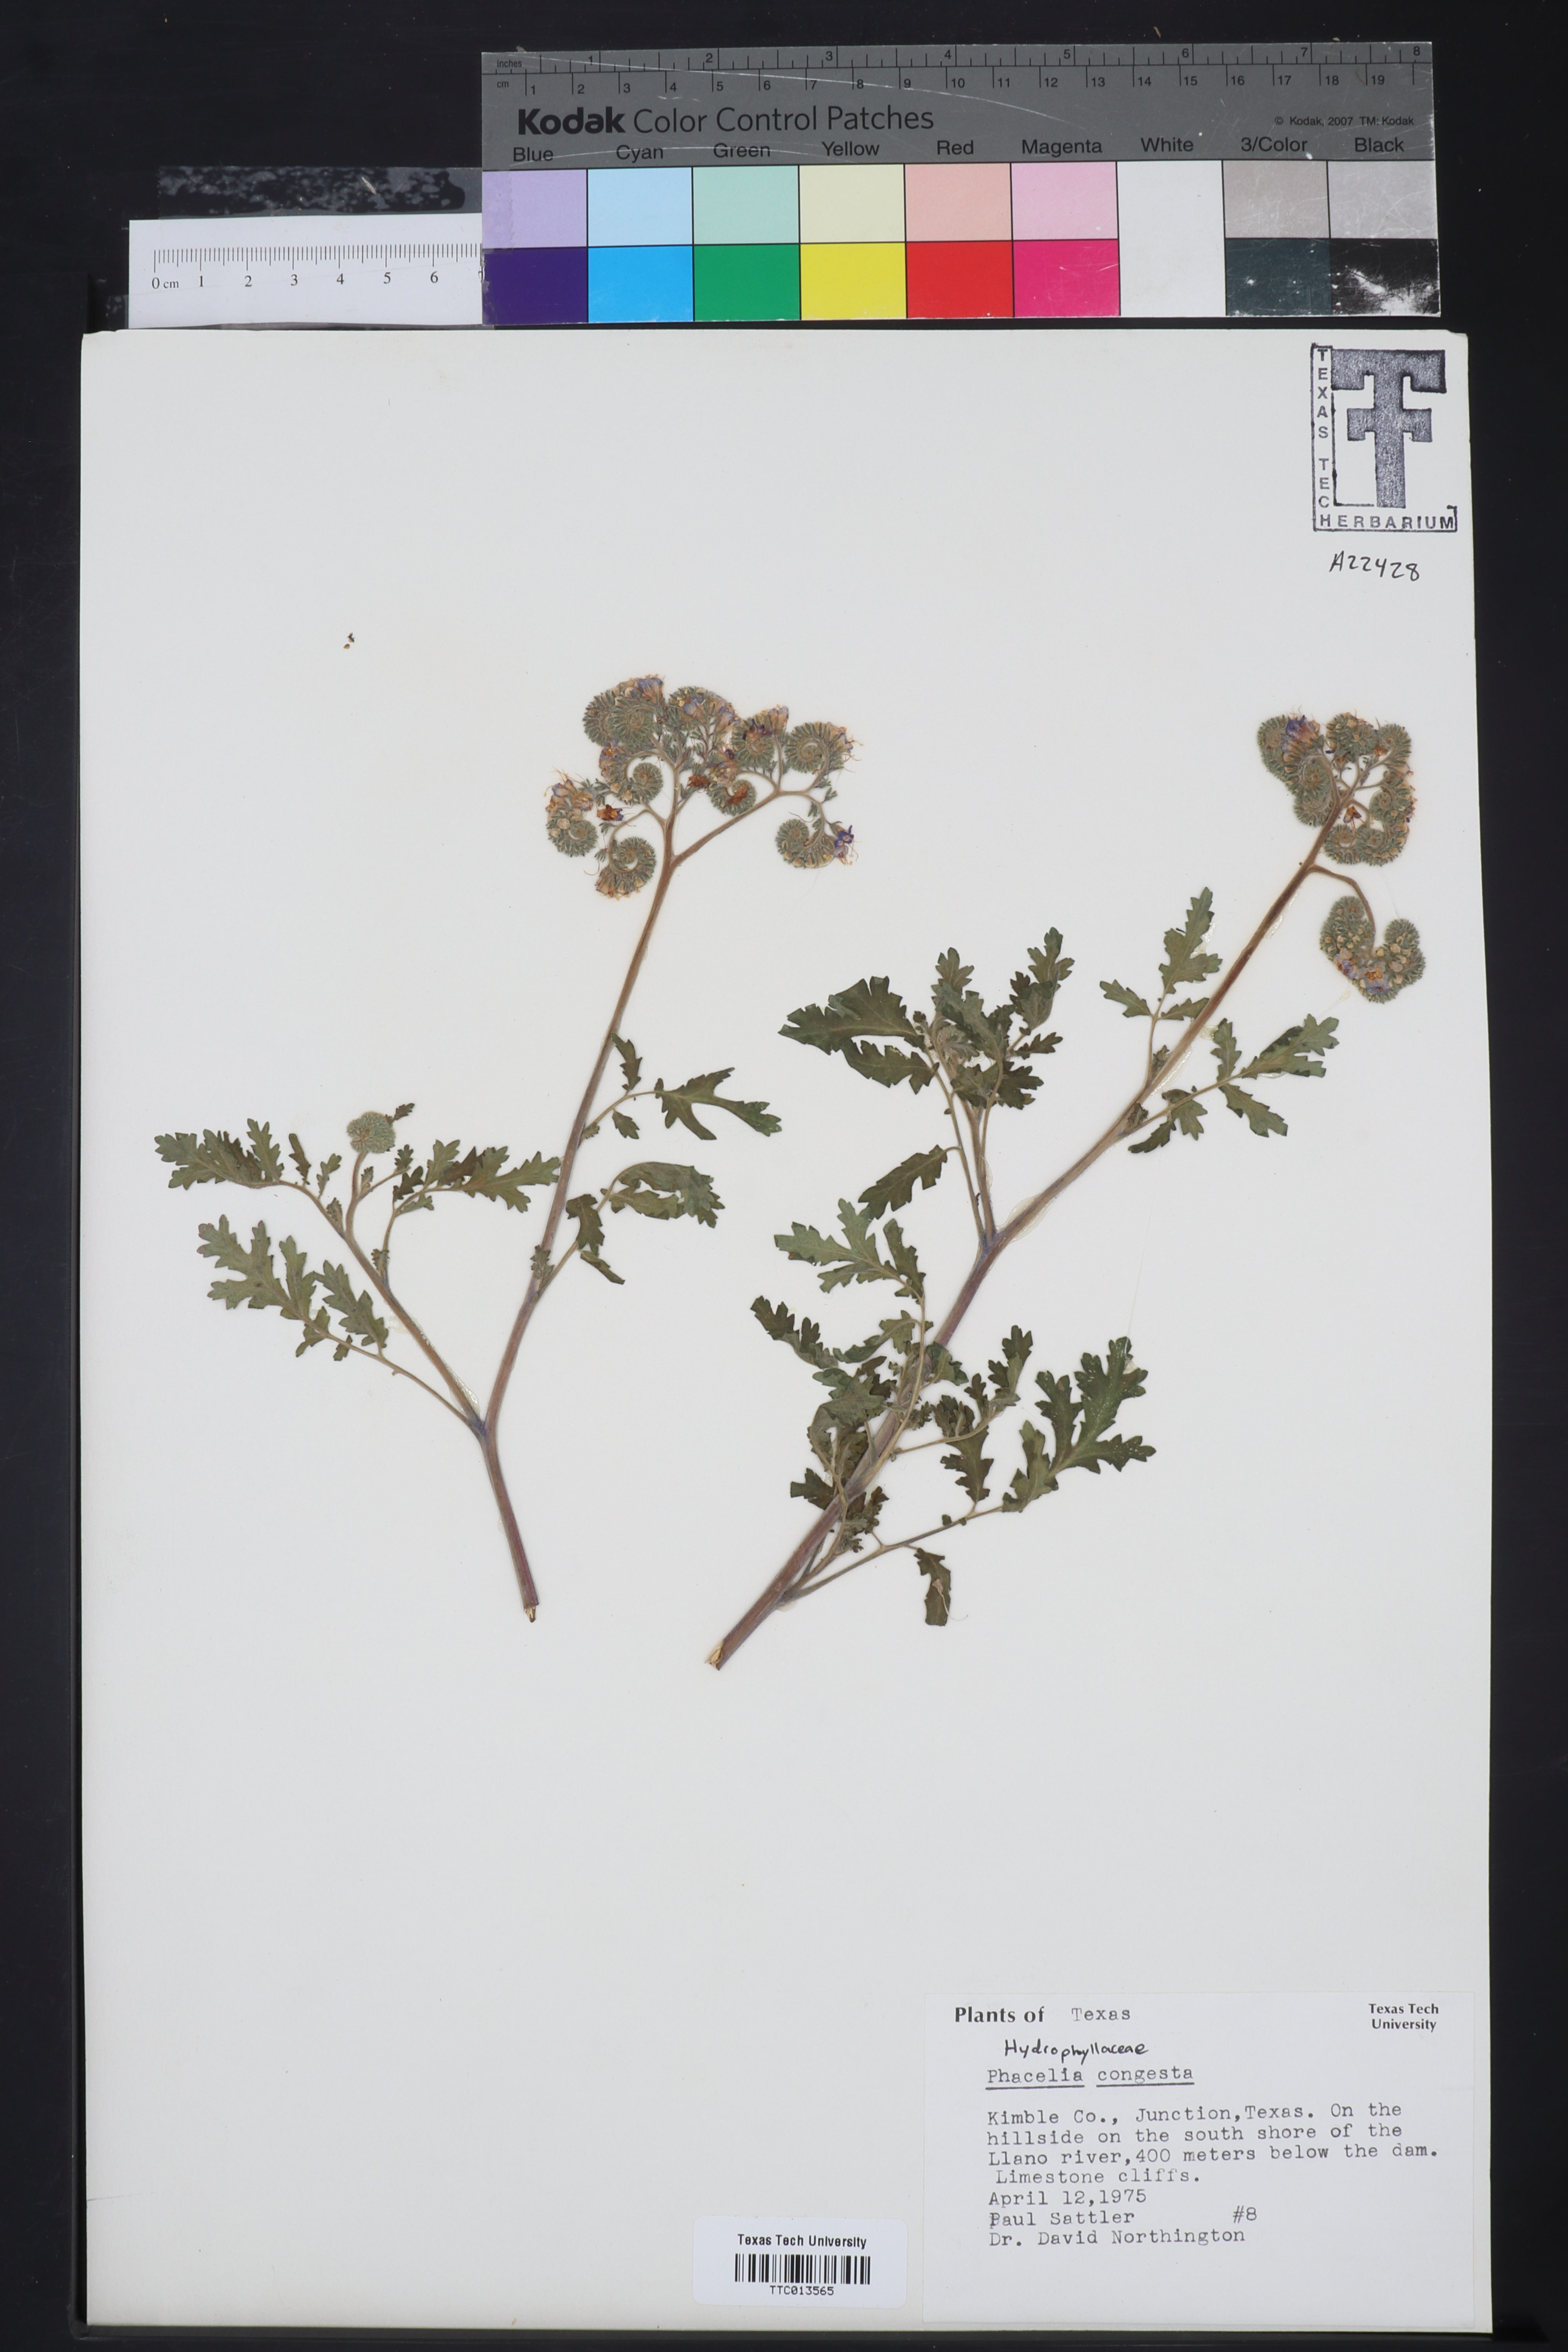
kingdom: Plantae
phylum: Tracheophyta
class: Magnoliopsida
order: Boraginales
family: Hydrophyllaceae
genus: Phacelia
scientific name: Phacelia congesta
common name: Blue curls
